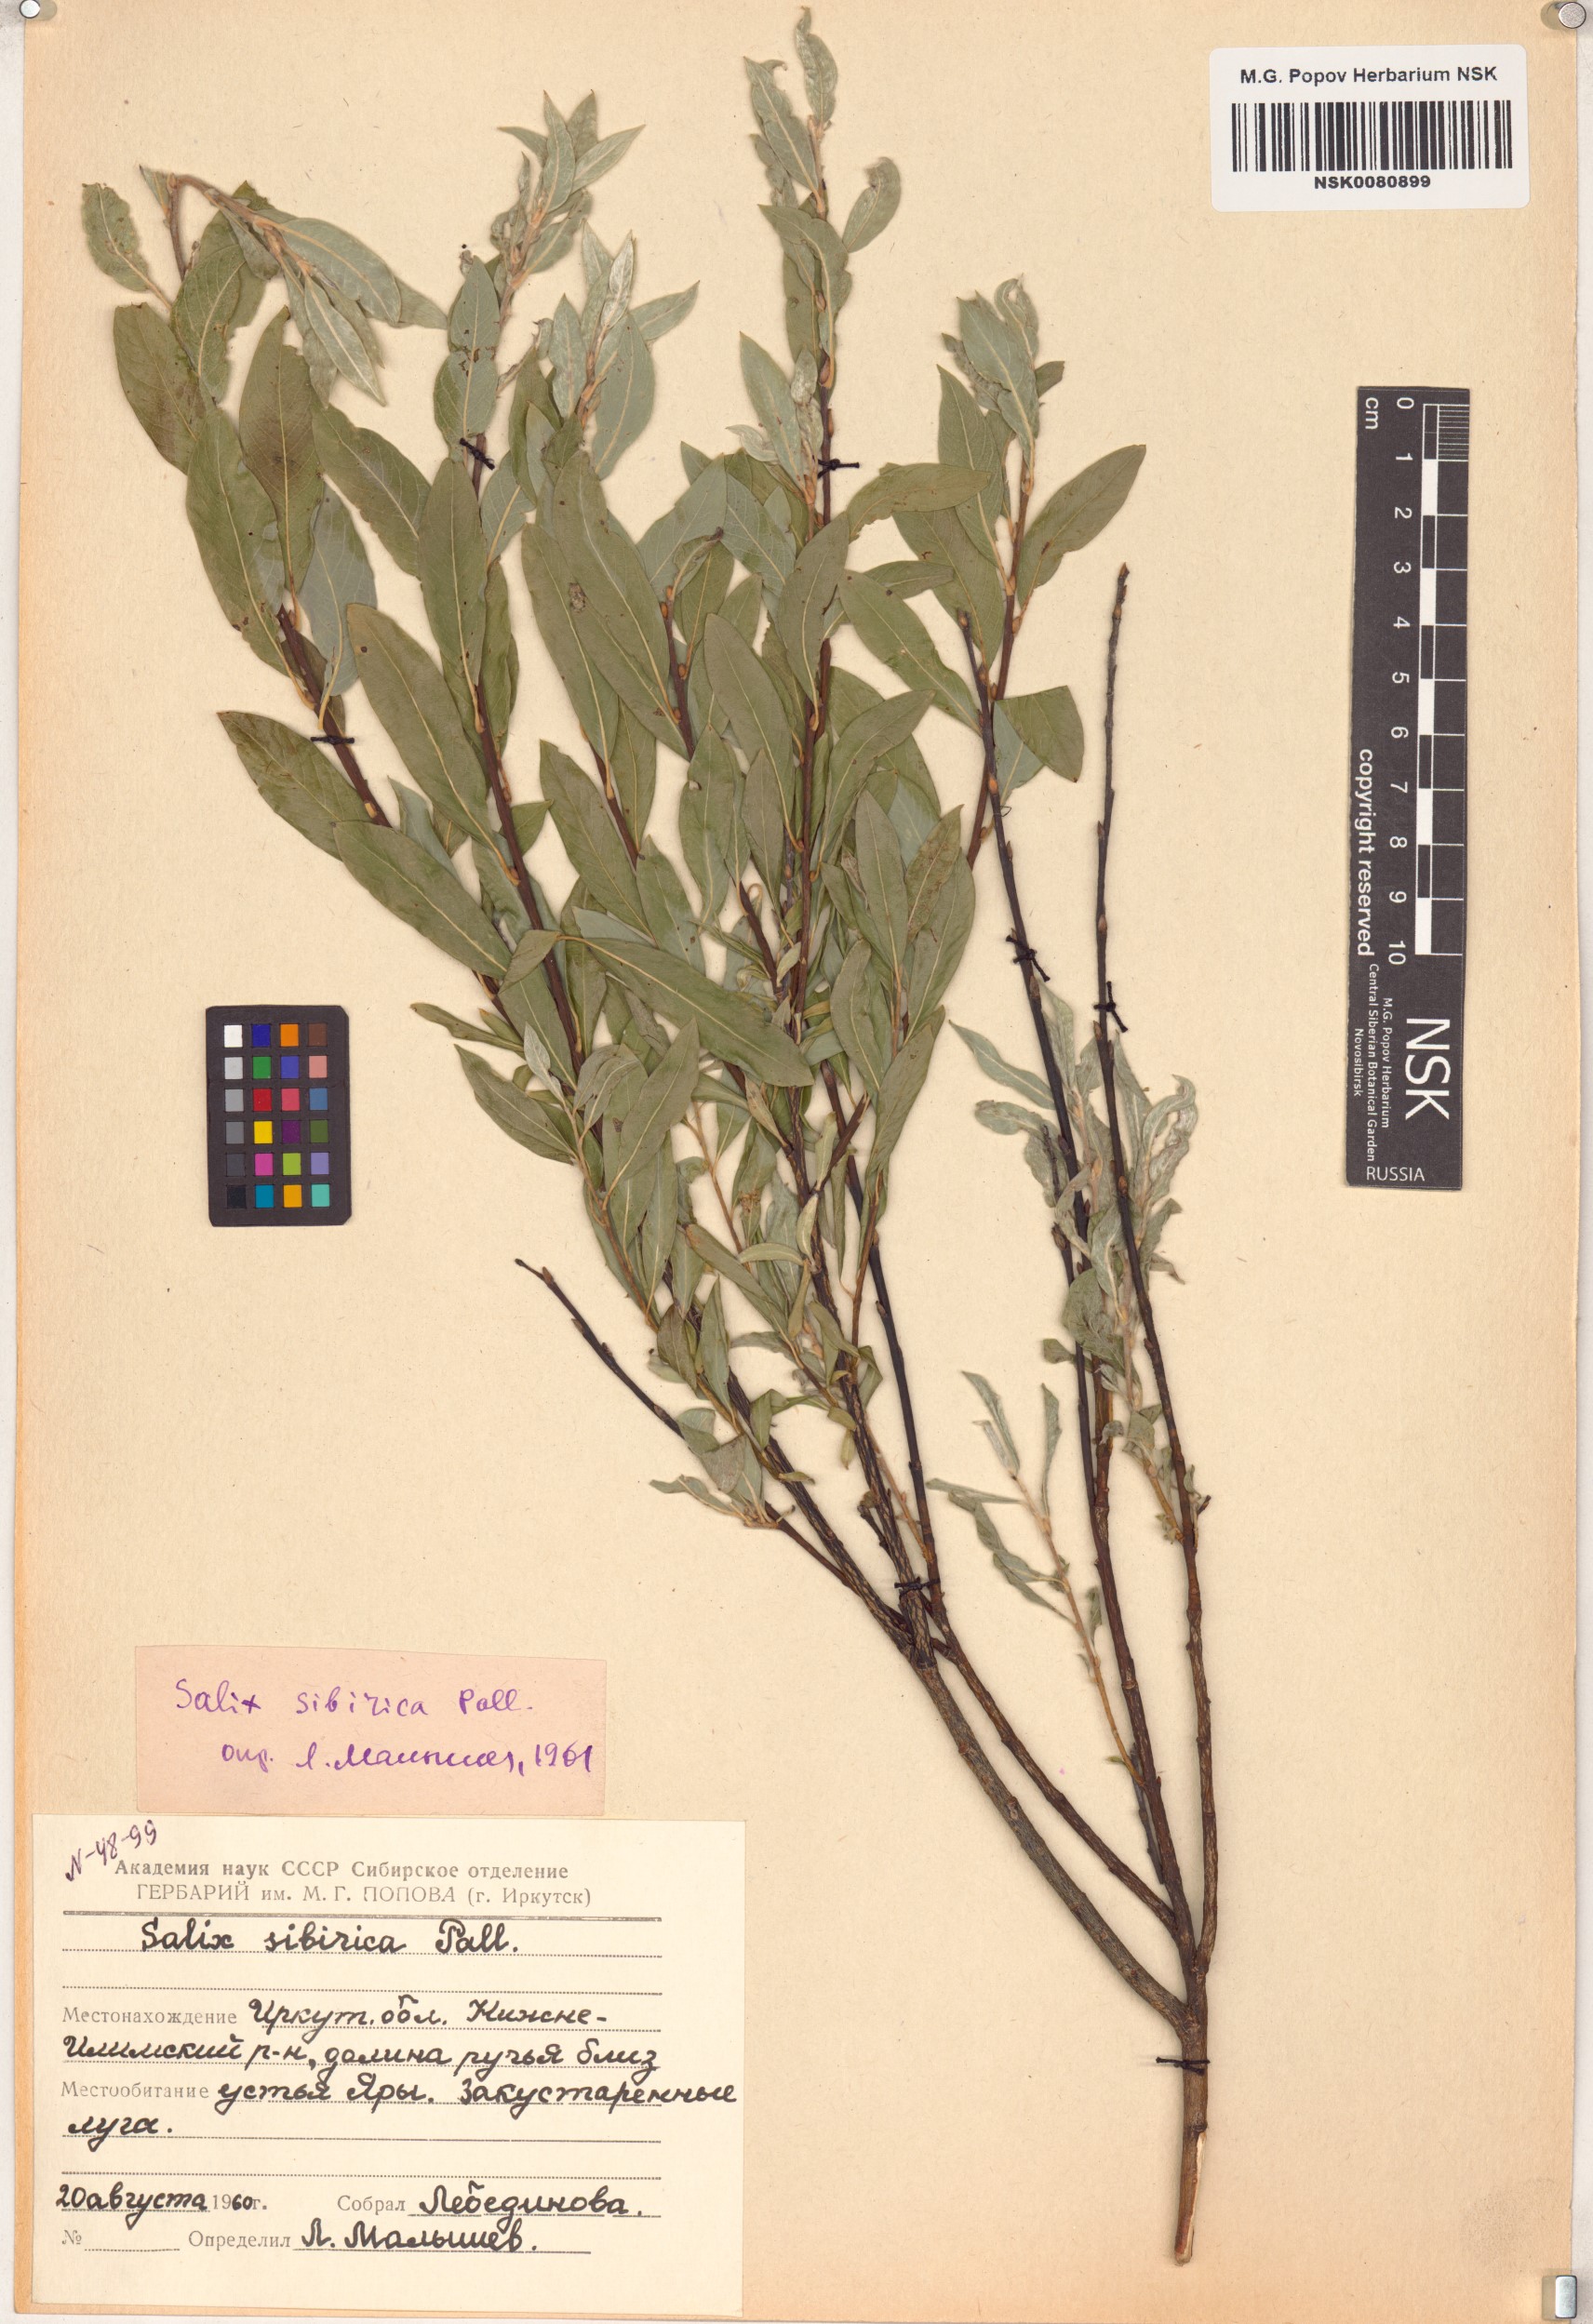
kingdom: Plantae
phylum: Tracheophyta
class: Magnoliopsida
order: Malpighiales
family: Salicaceae
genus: Salix
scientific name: Salix rosmarinifolia
